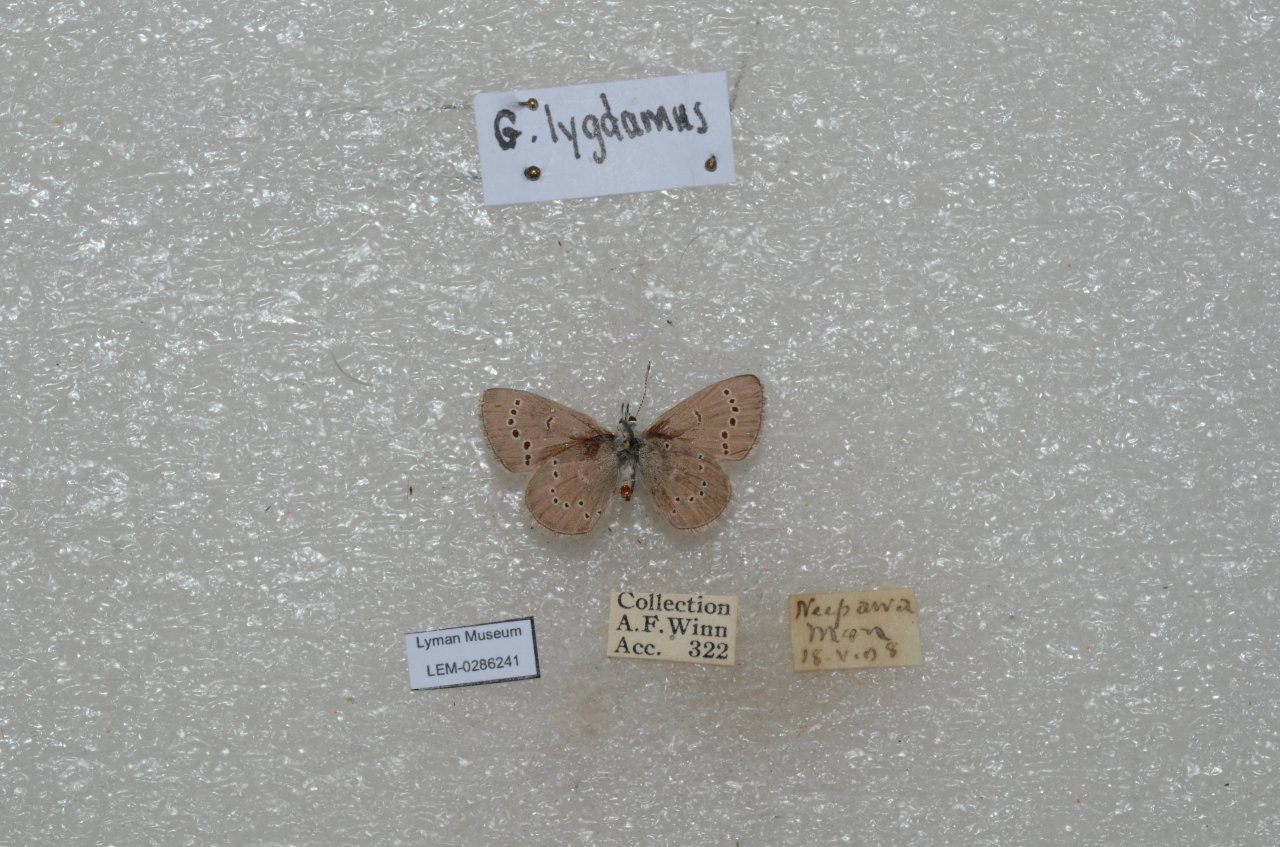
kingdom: Animalia
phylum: Arthropoda
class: Insecta
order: Lepidoptera
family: Lycaenidae
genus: Glaucopsyche
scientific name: Glaucopsyche lygdamus
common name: Silvery Blue
